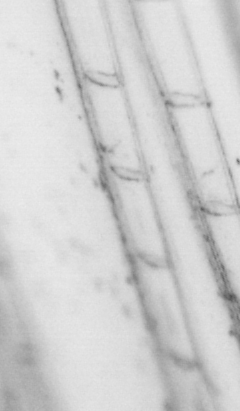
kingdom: Animalia
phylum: Chordata
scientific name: Chordata
